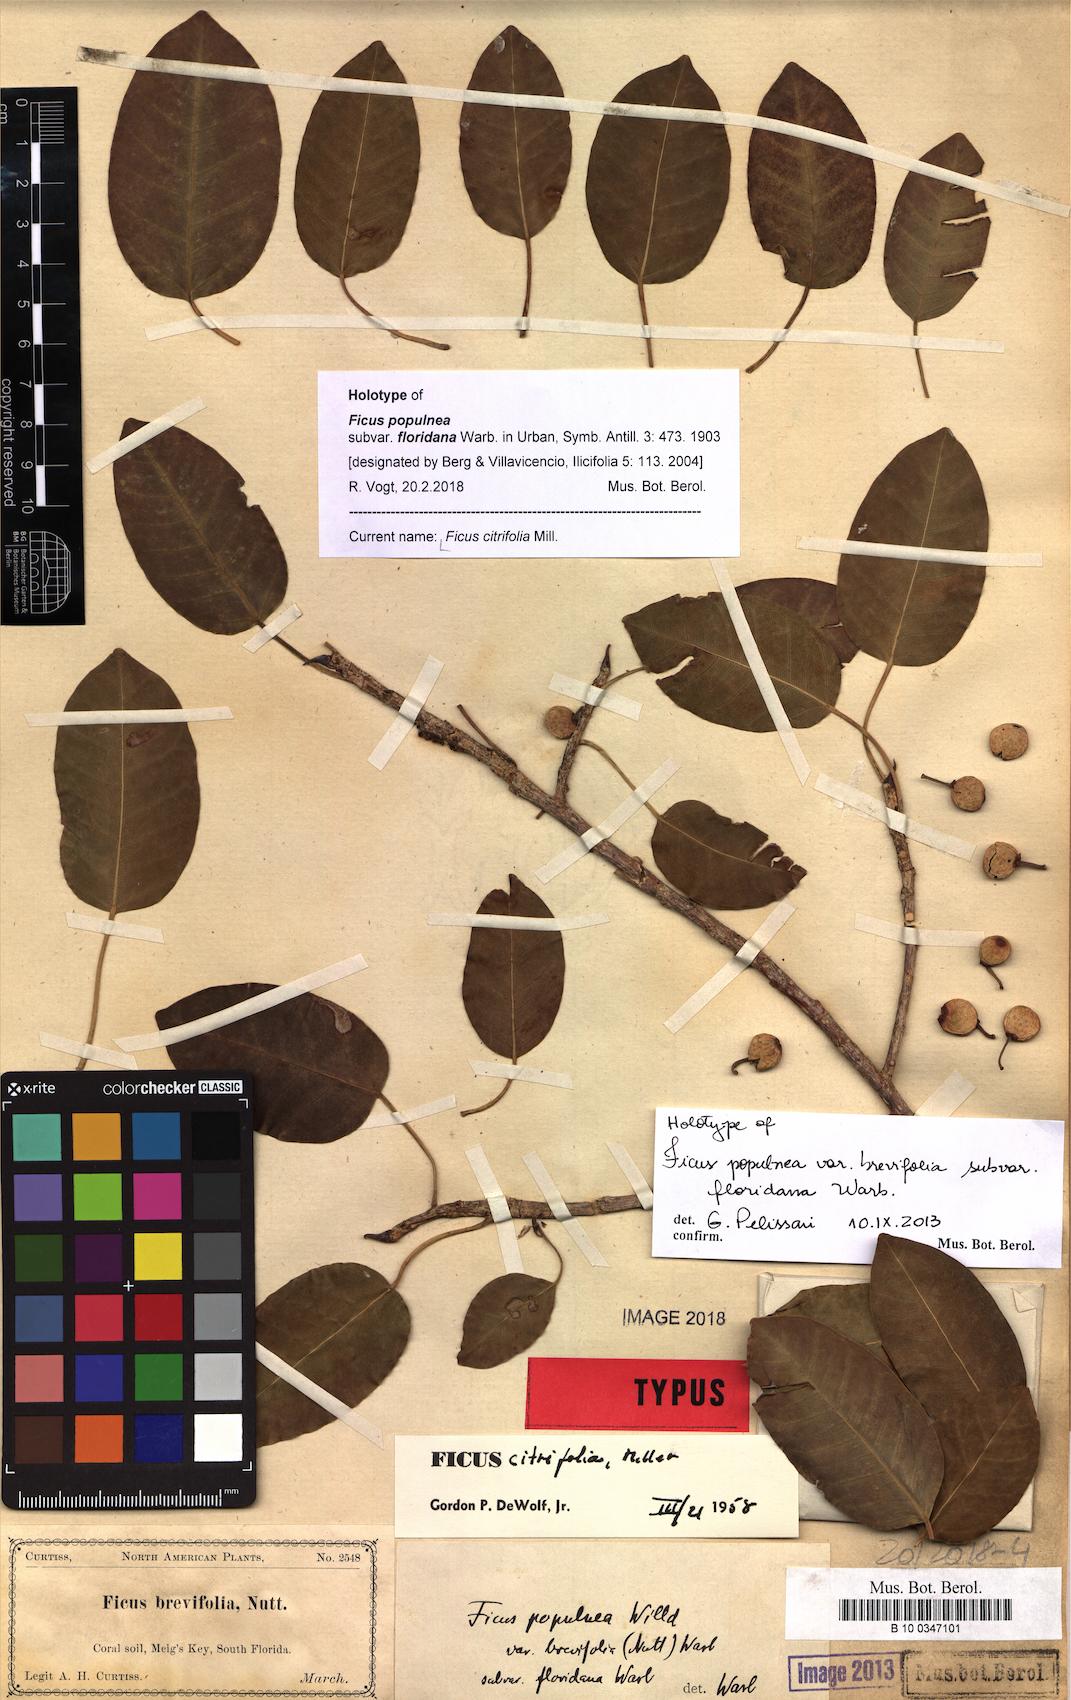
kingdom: Plantae
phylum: Tracheophyta
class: Magnoliopsida
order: Rosales
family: Moraceae
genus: Ficus
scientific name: Ficus citrifolia
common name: Strangler fig
